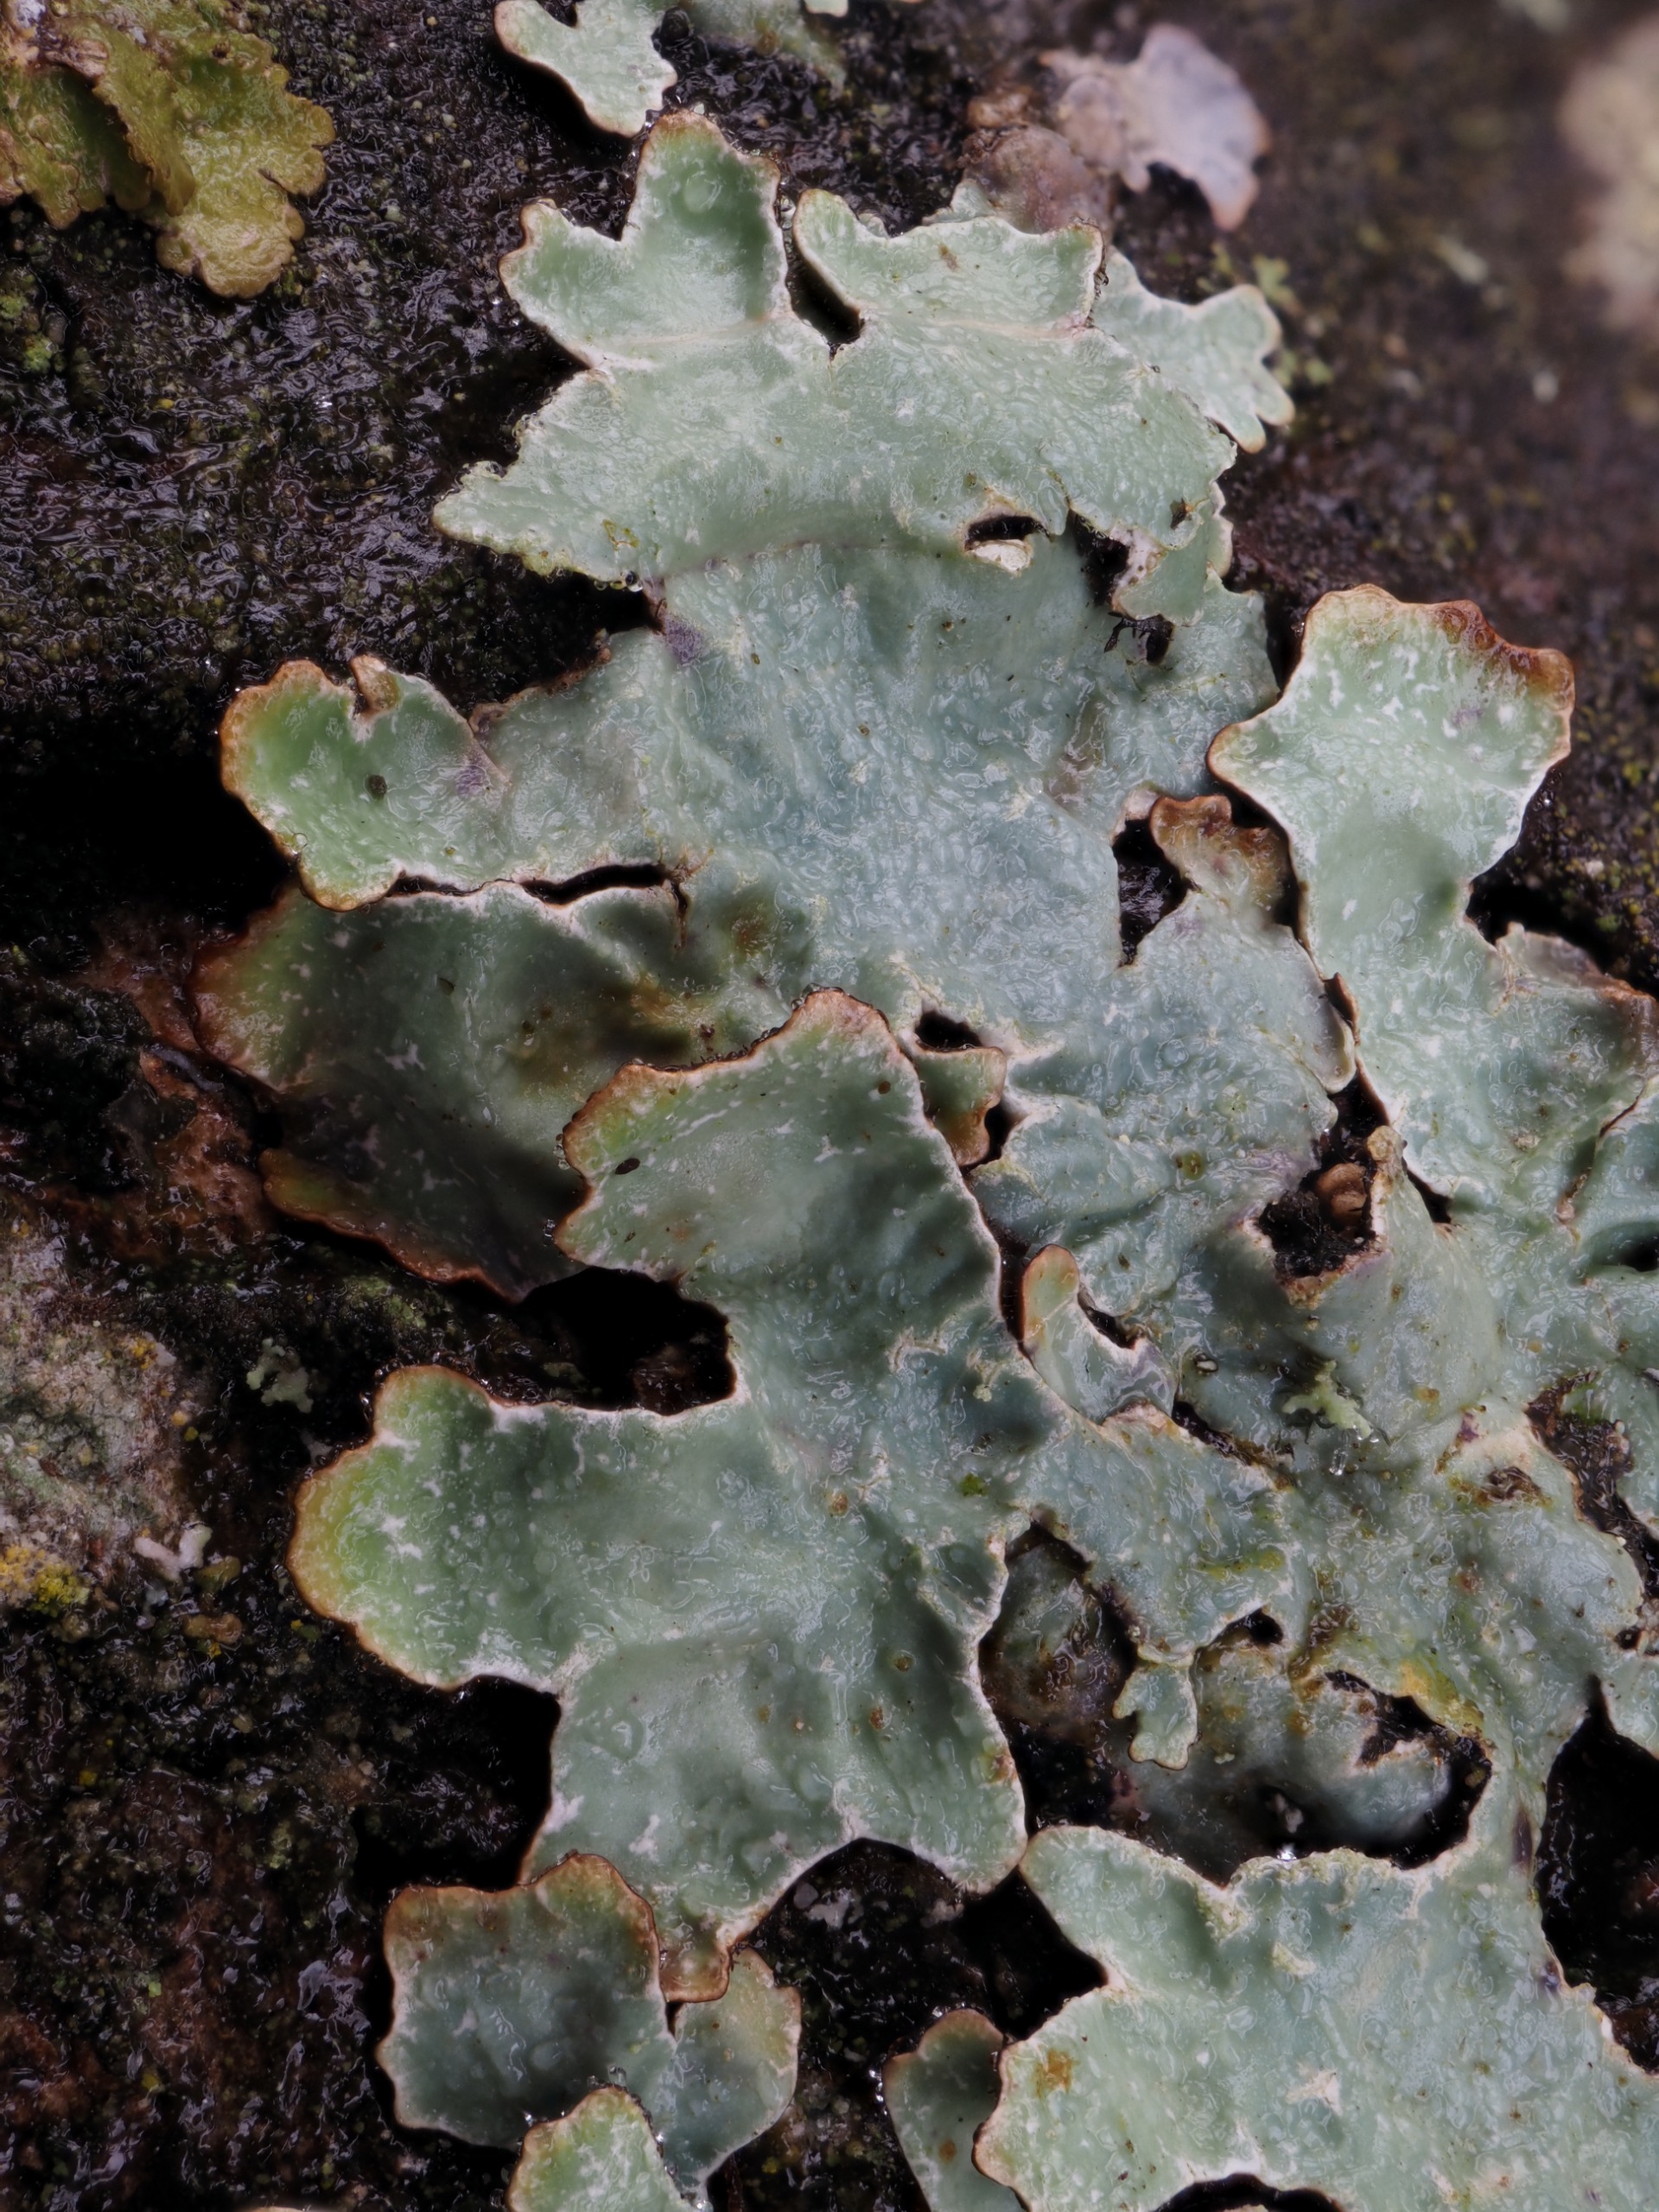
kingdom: Fungi
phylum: Ascomycota
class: Lecanoromycetes
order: Lecanorales
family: Parmeliaceae
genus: Parmelia
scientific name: Parmelia sulcata
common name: Rynket skållav
